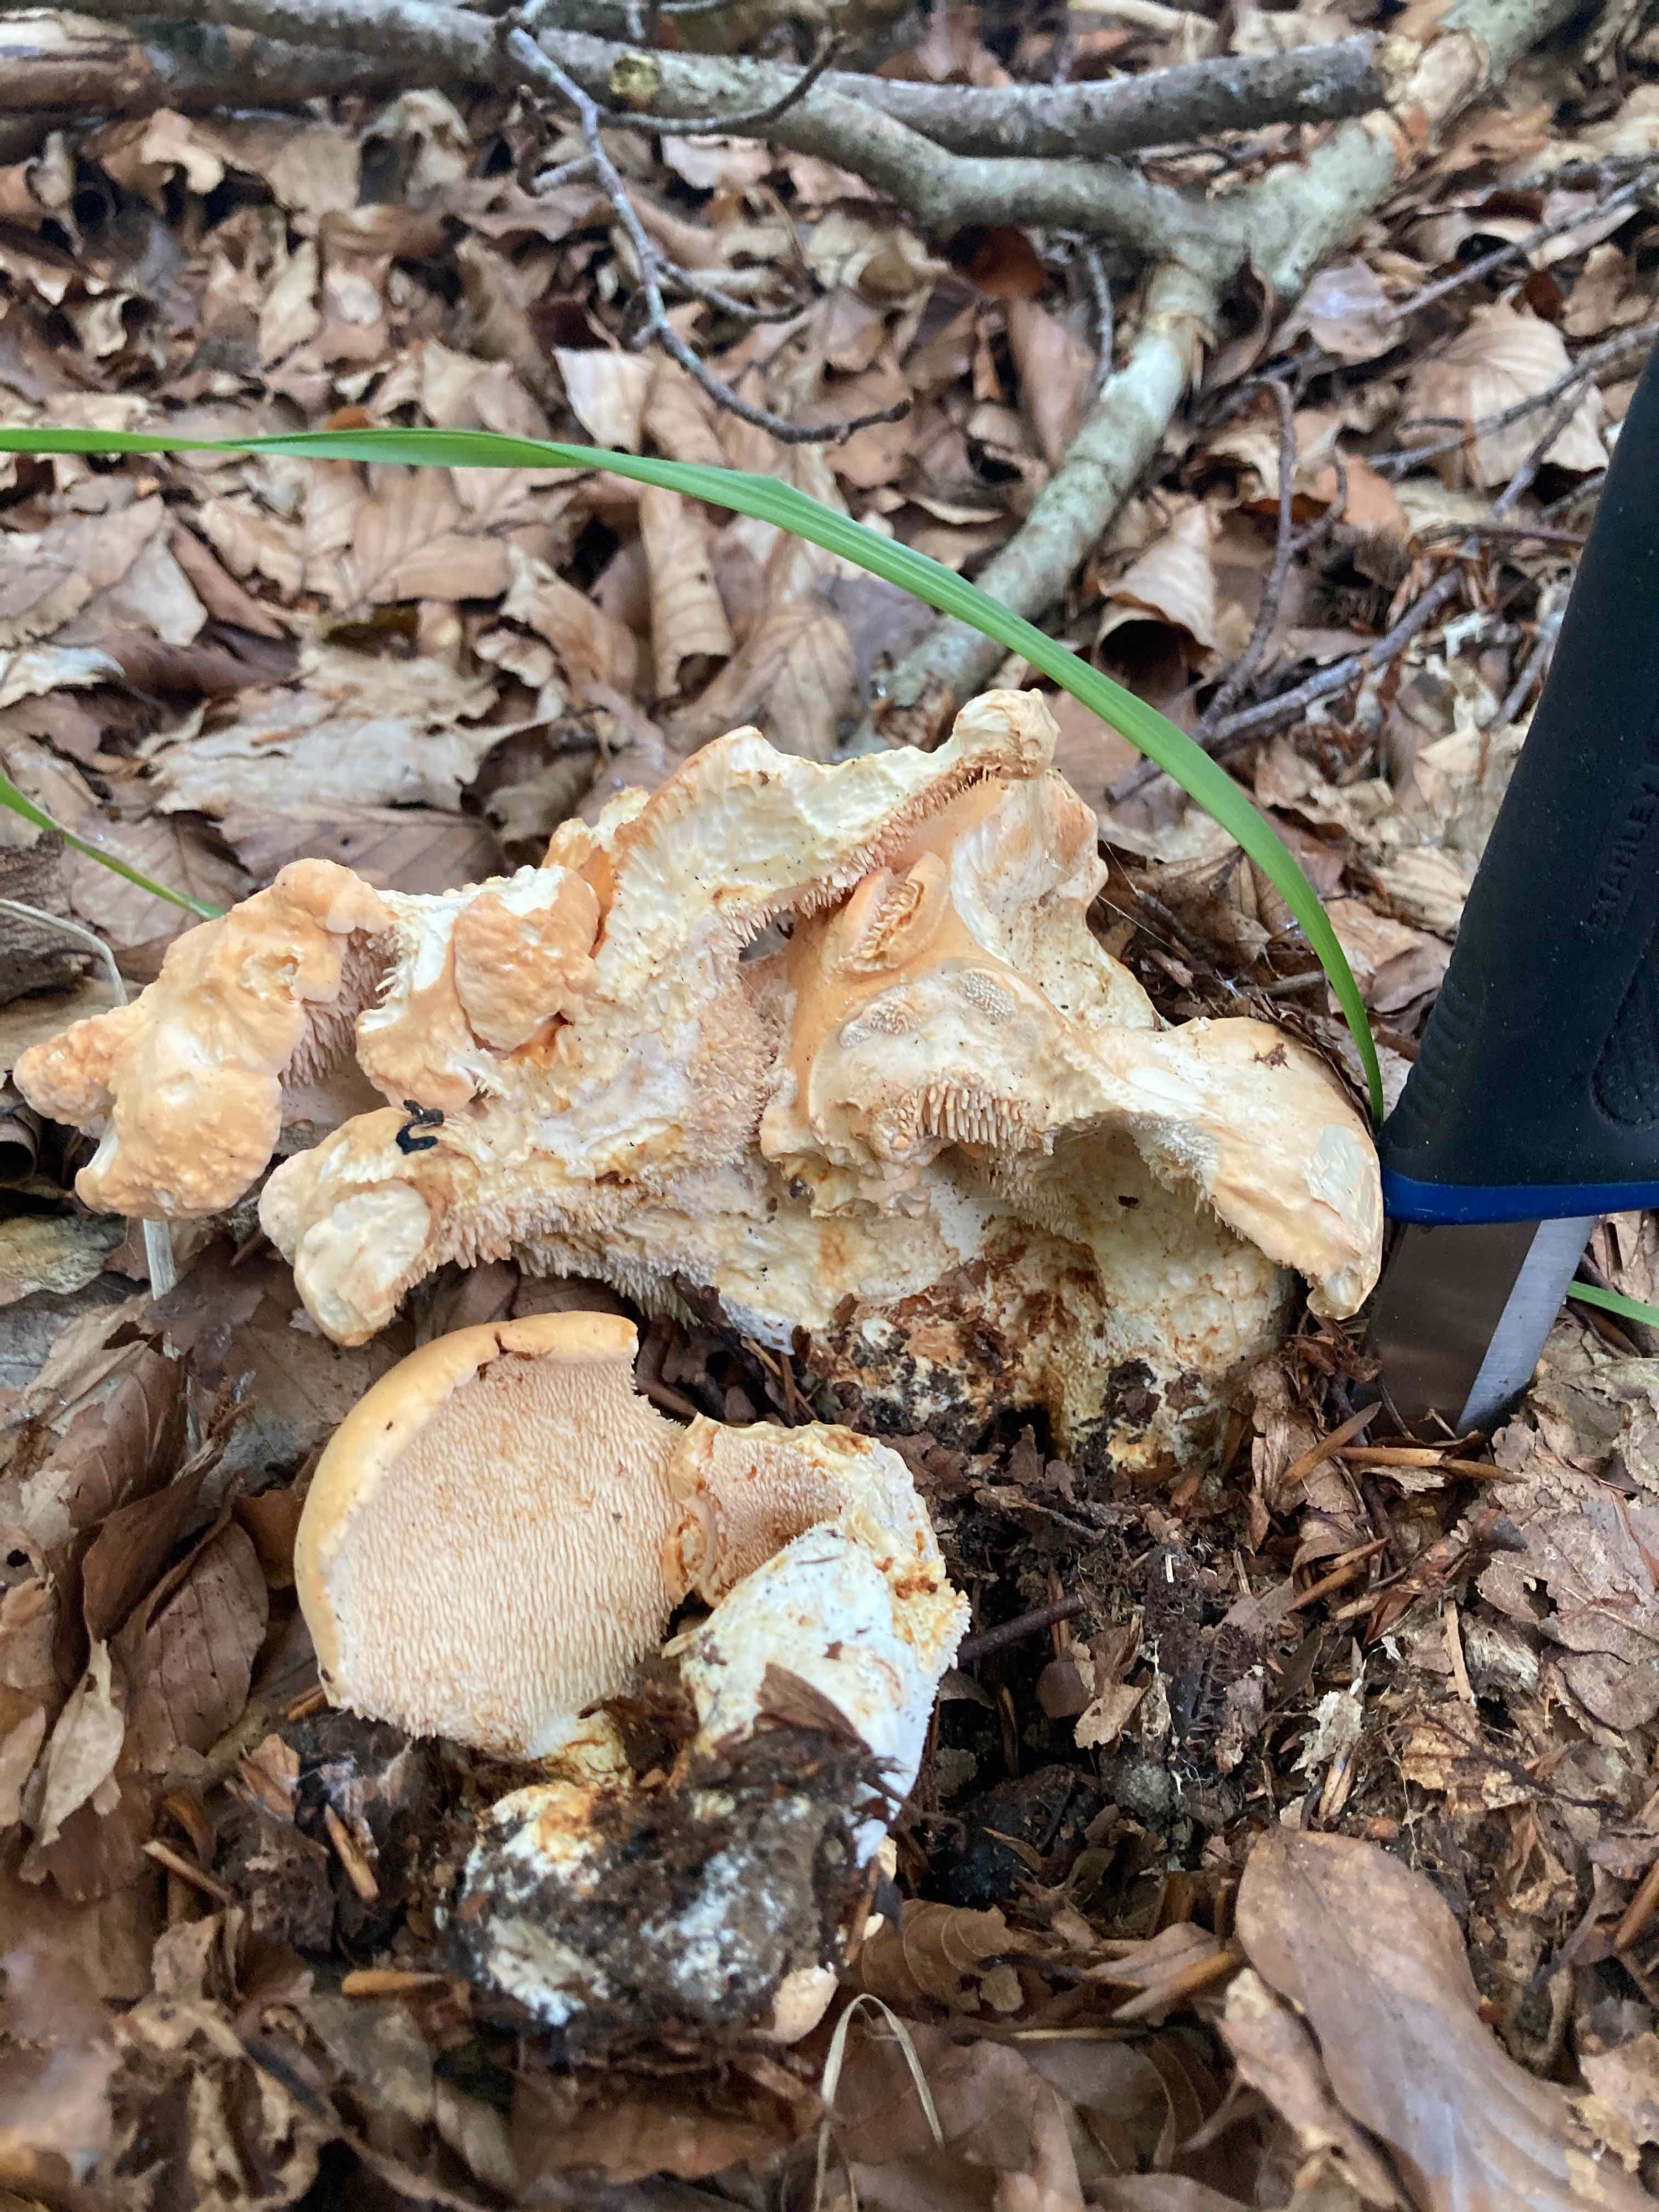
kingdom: Fungi
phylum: Basidiomycota
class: Agaricomycetes
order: Cantharellales
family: Hydnaceae
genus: Hydnum
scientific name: Hydnum slovenicum
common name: slovensk pigsvamp
